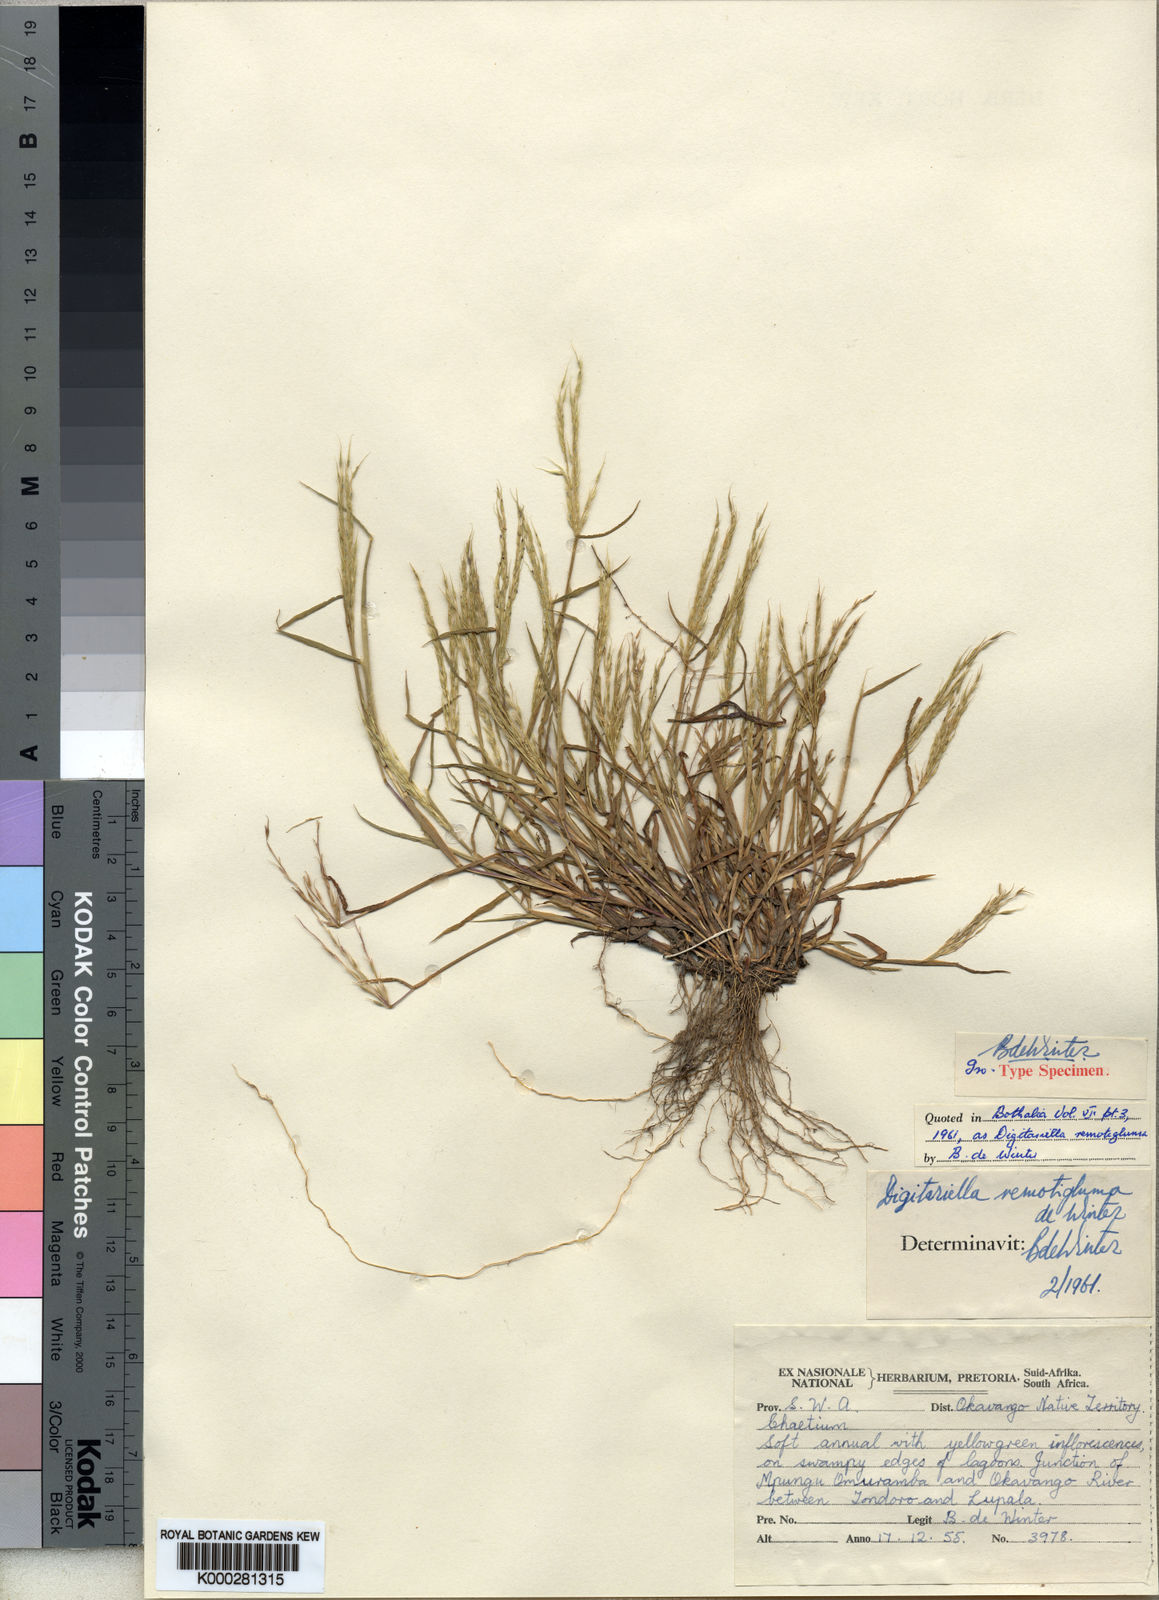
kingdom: Plantae
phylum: Tracheophyta
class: Liliopsida
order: Poales
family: Poaceae
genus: Digitaria
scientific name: Digitaria remotigluma
